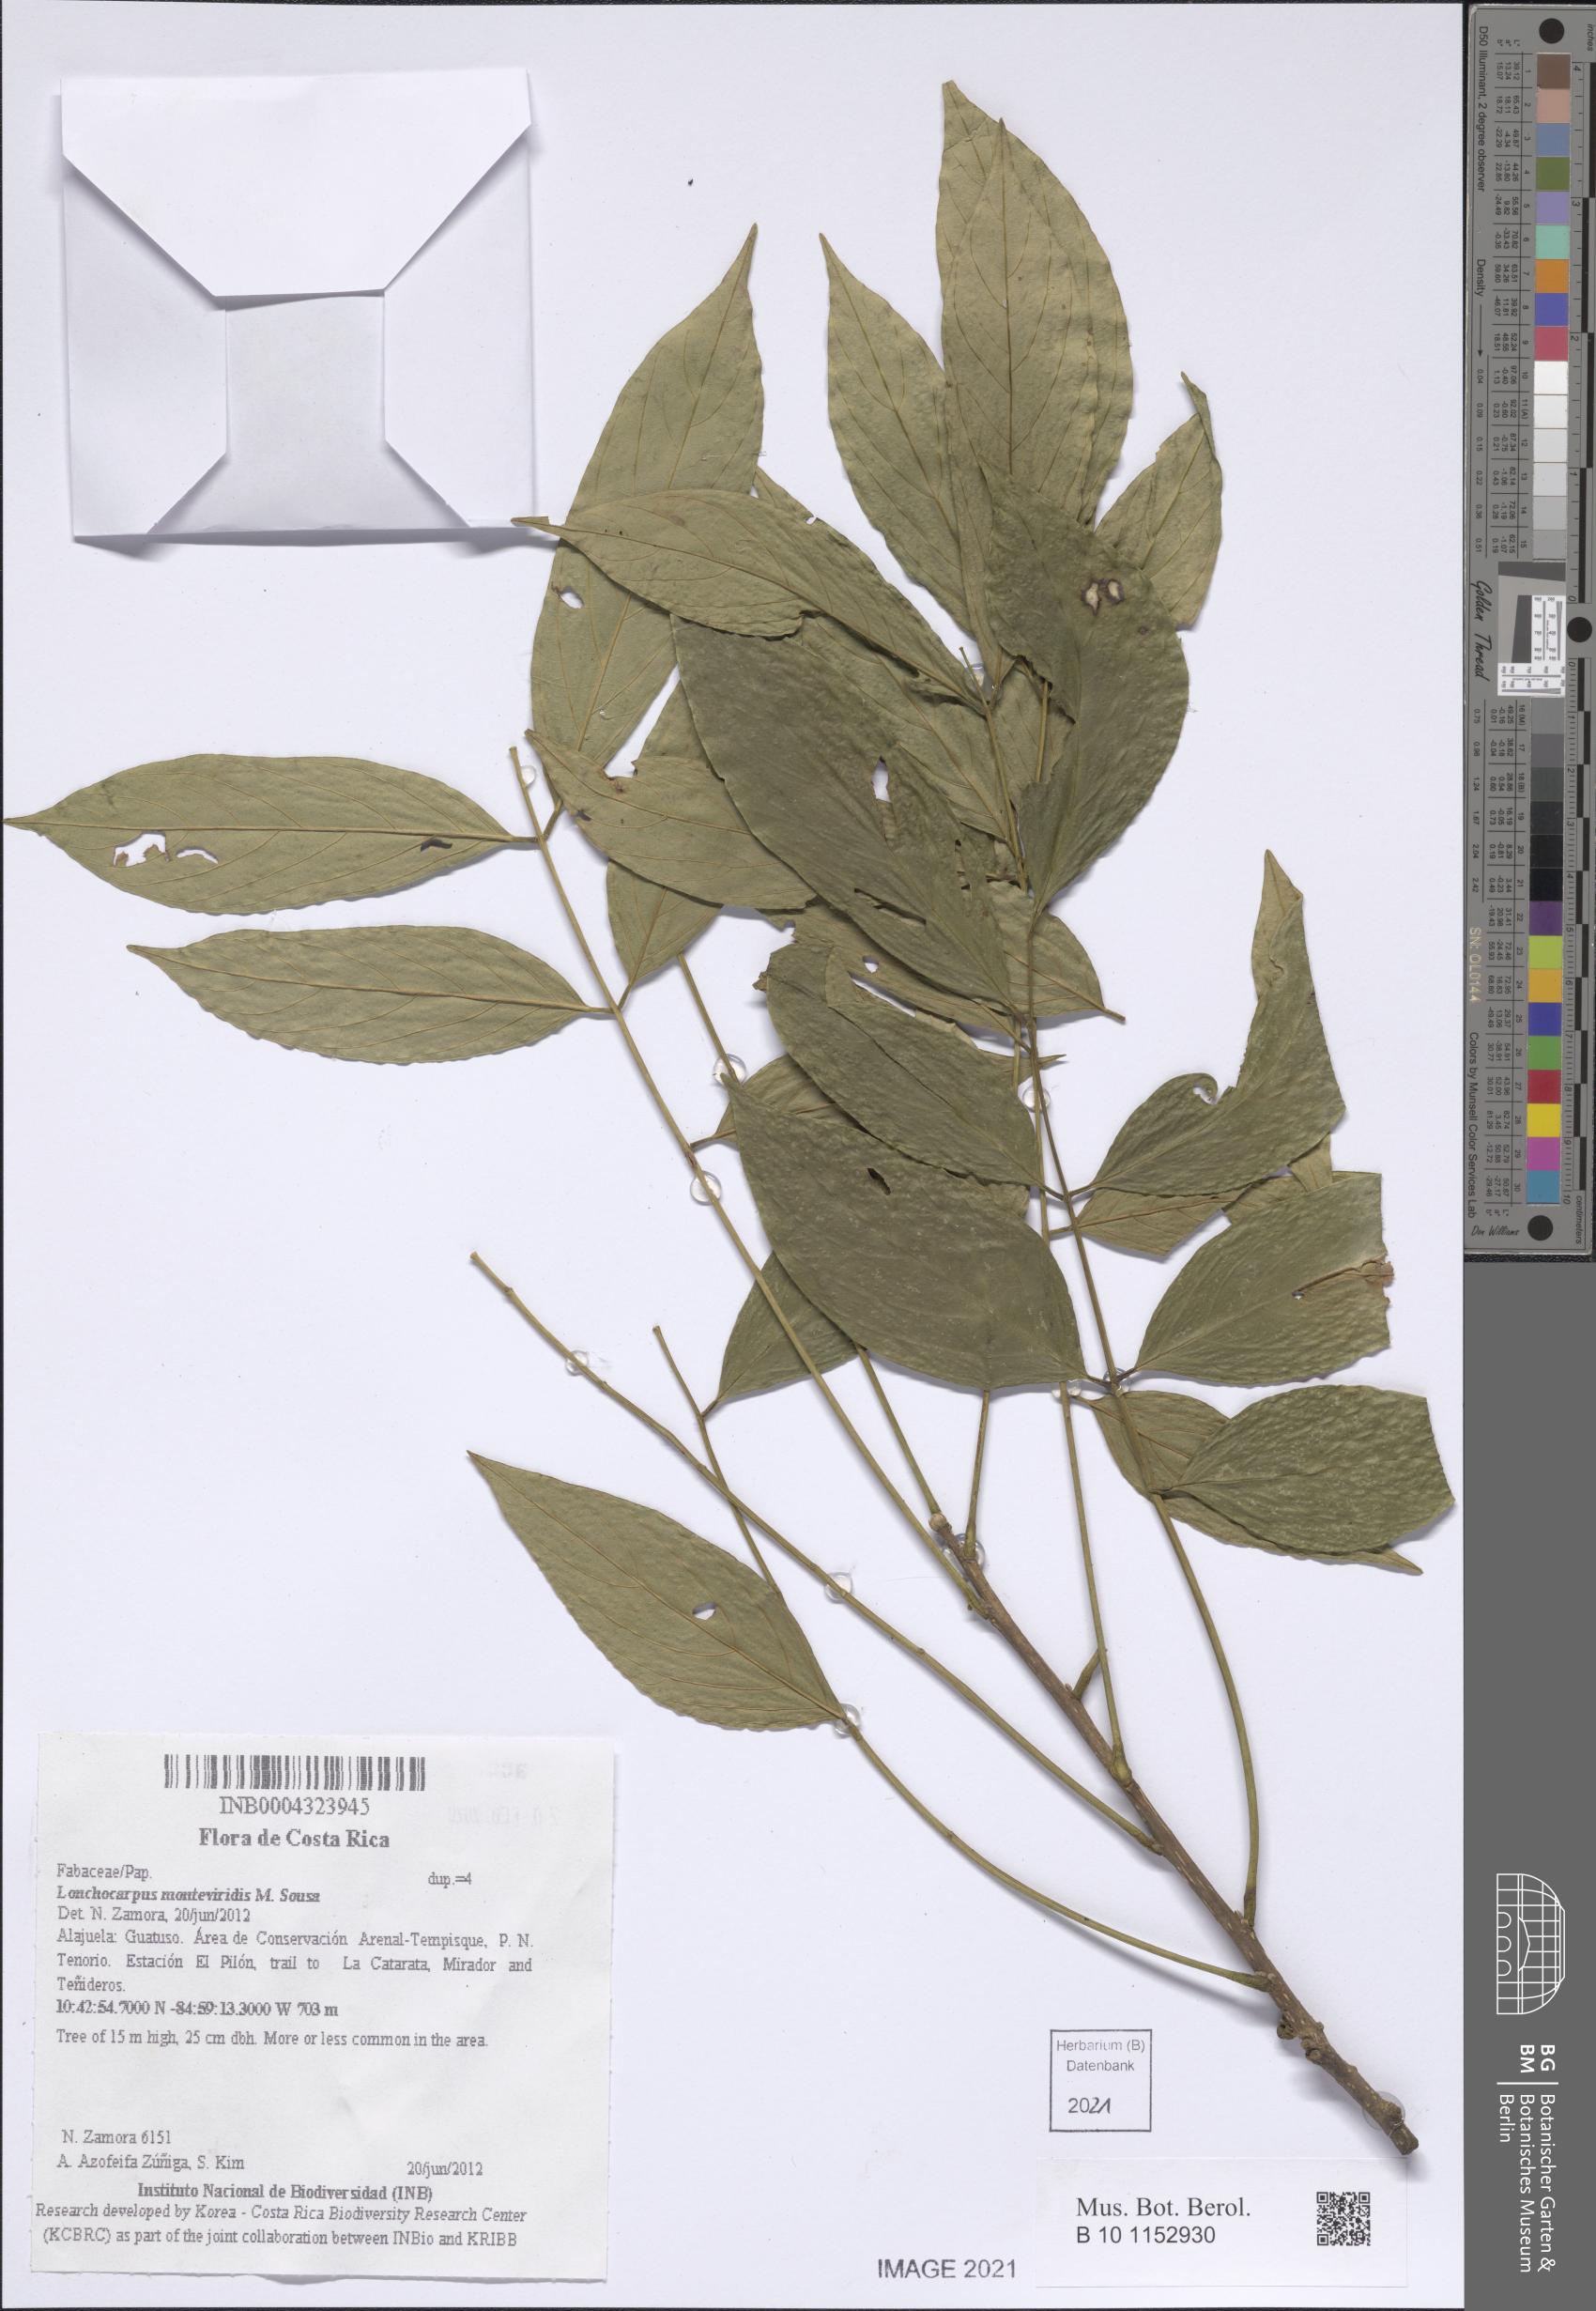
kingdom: Plantae
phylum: Tracheophyta
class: Magnoliopsida
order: Fabales
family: Fabaceae
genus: Lonchocarpus
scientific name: Lonchocarpus monteviridis
